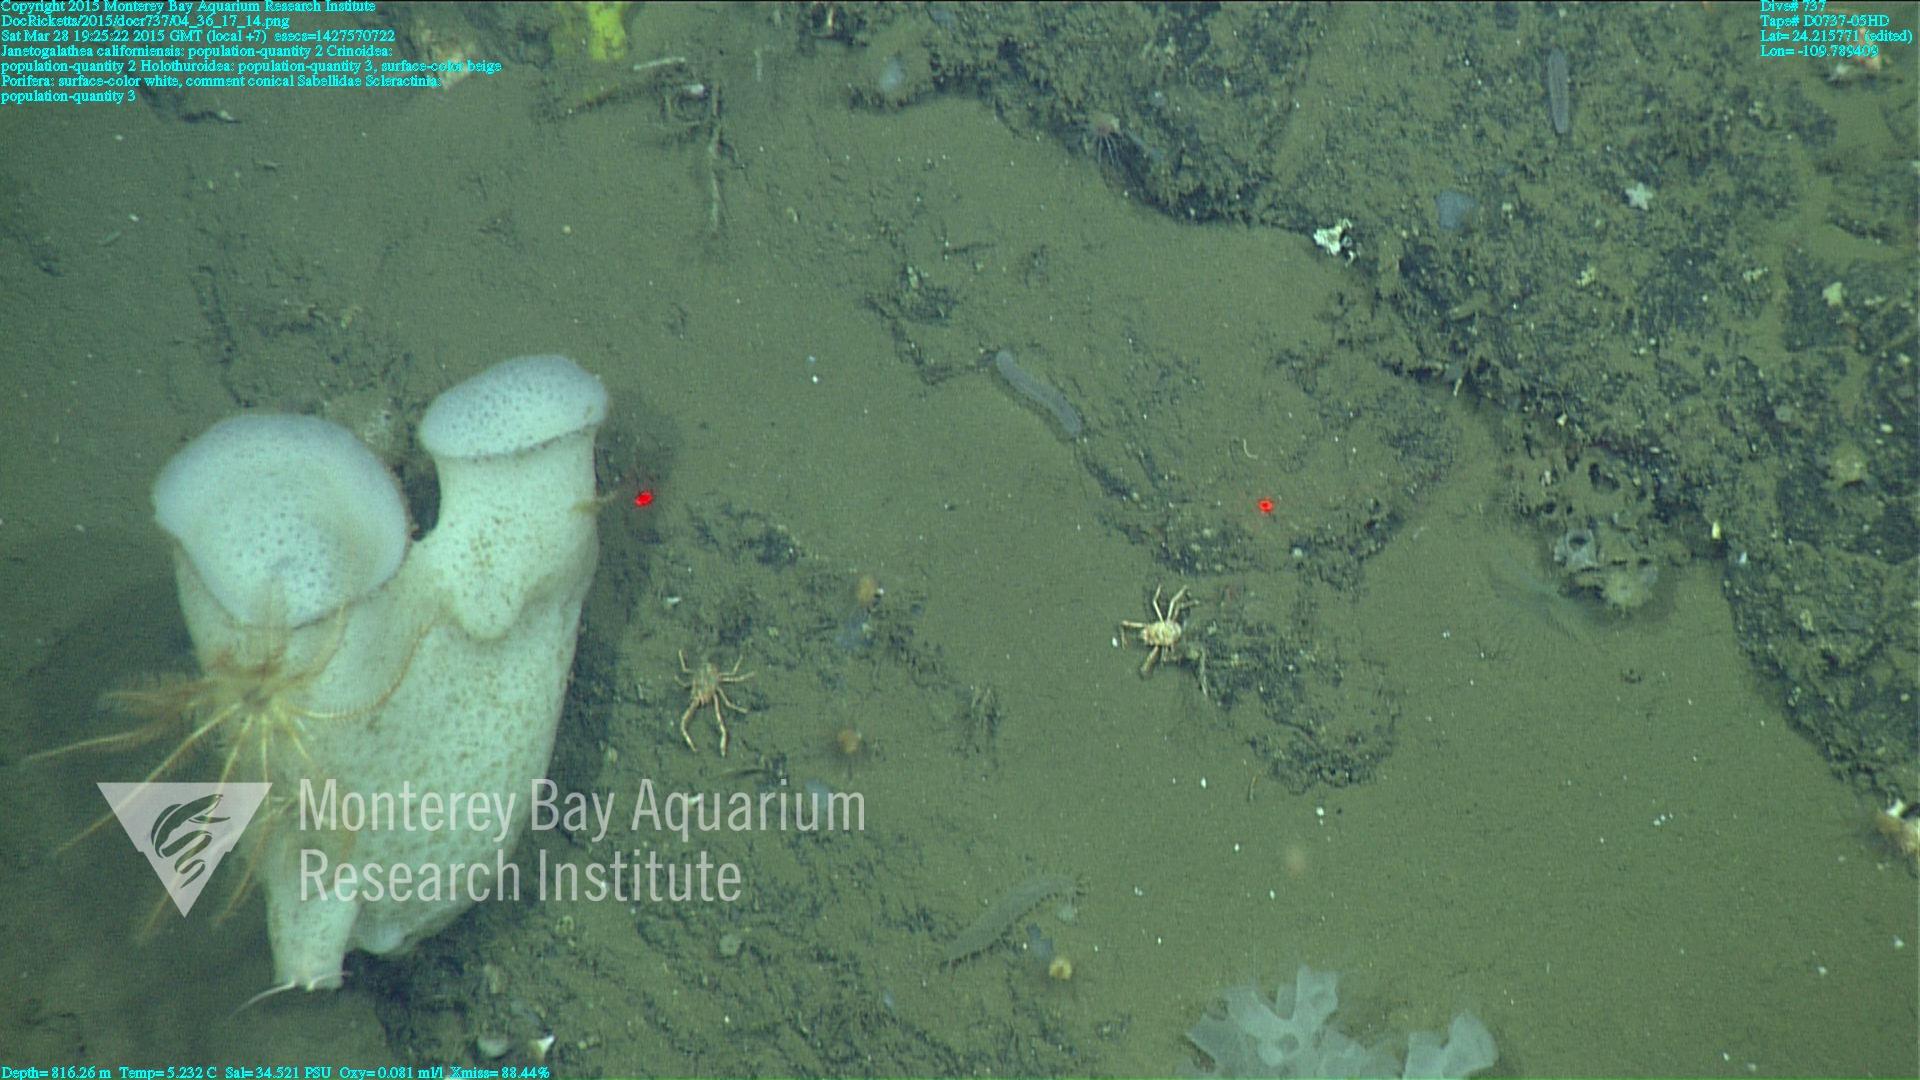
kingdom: Animalia
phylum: Cnidaria
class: Anthozoa
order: Scleractinia
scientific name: Scleractinia
